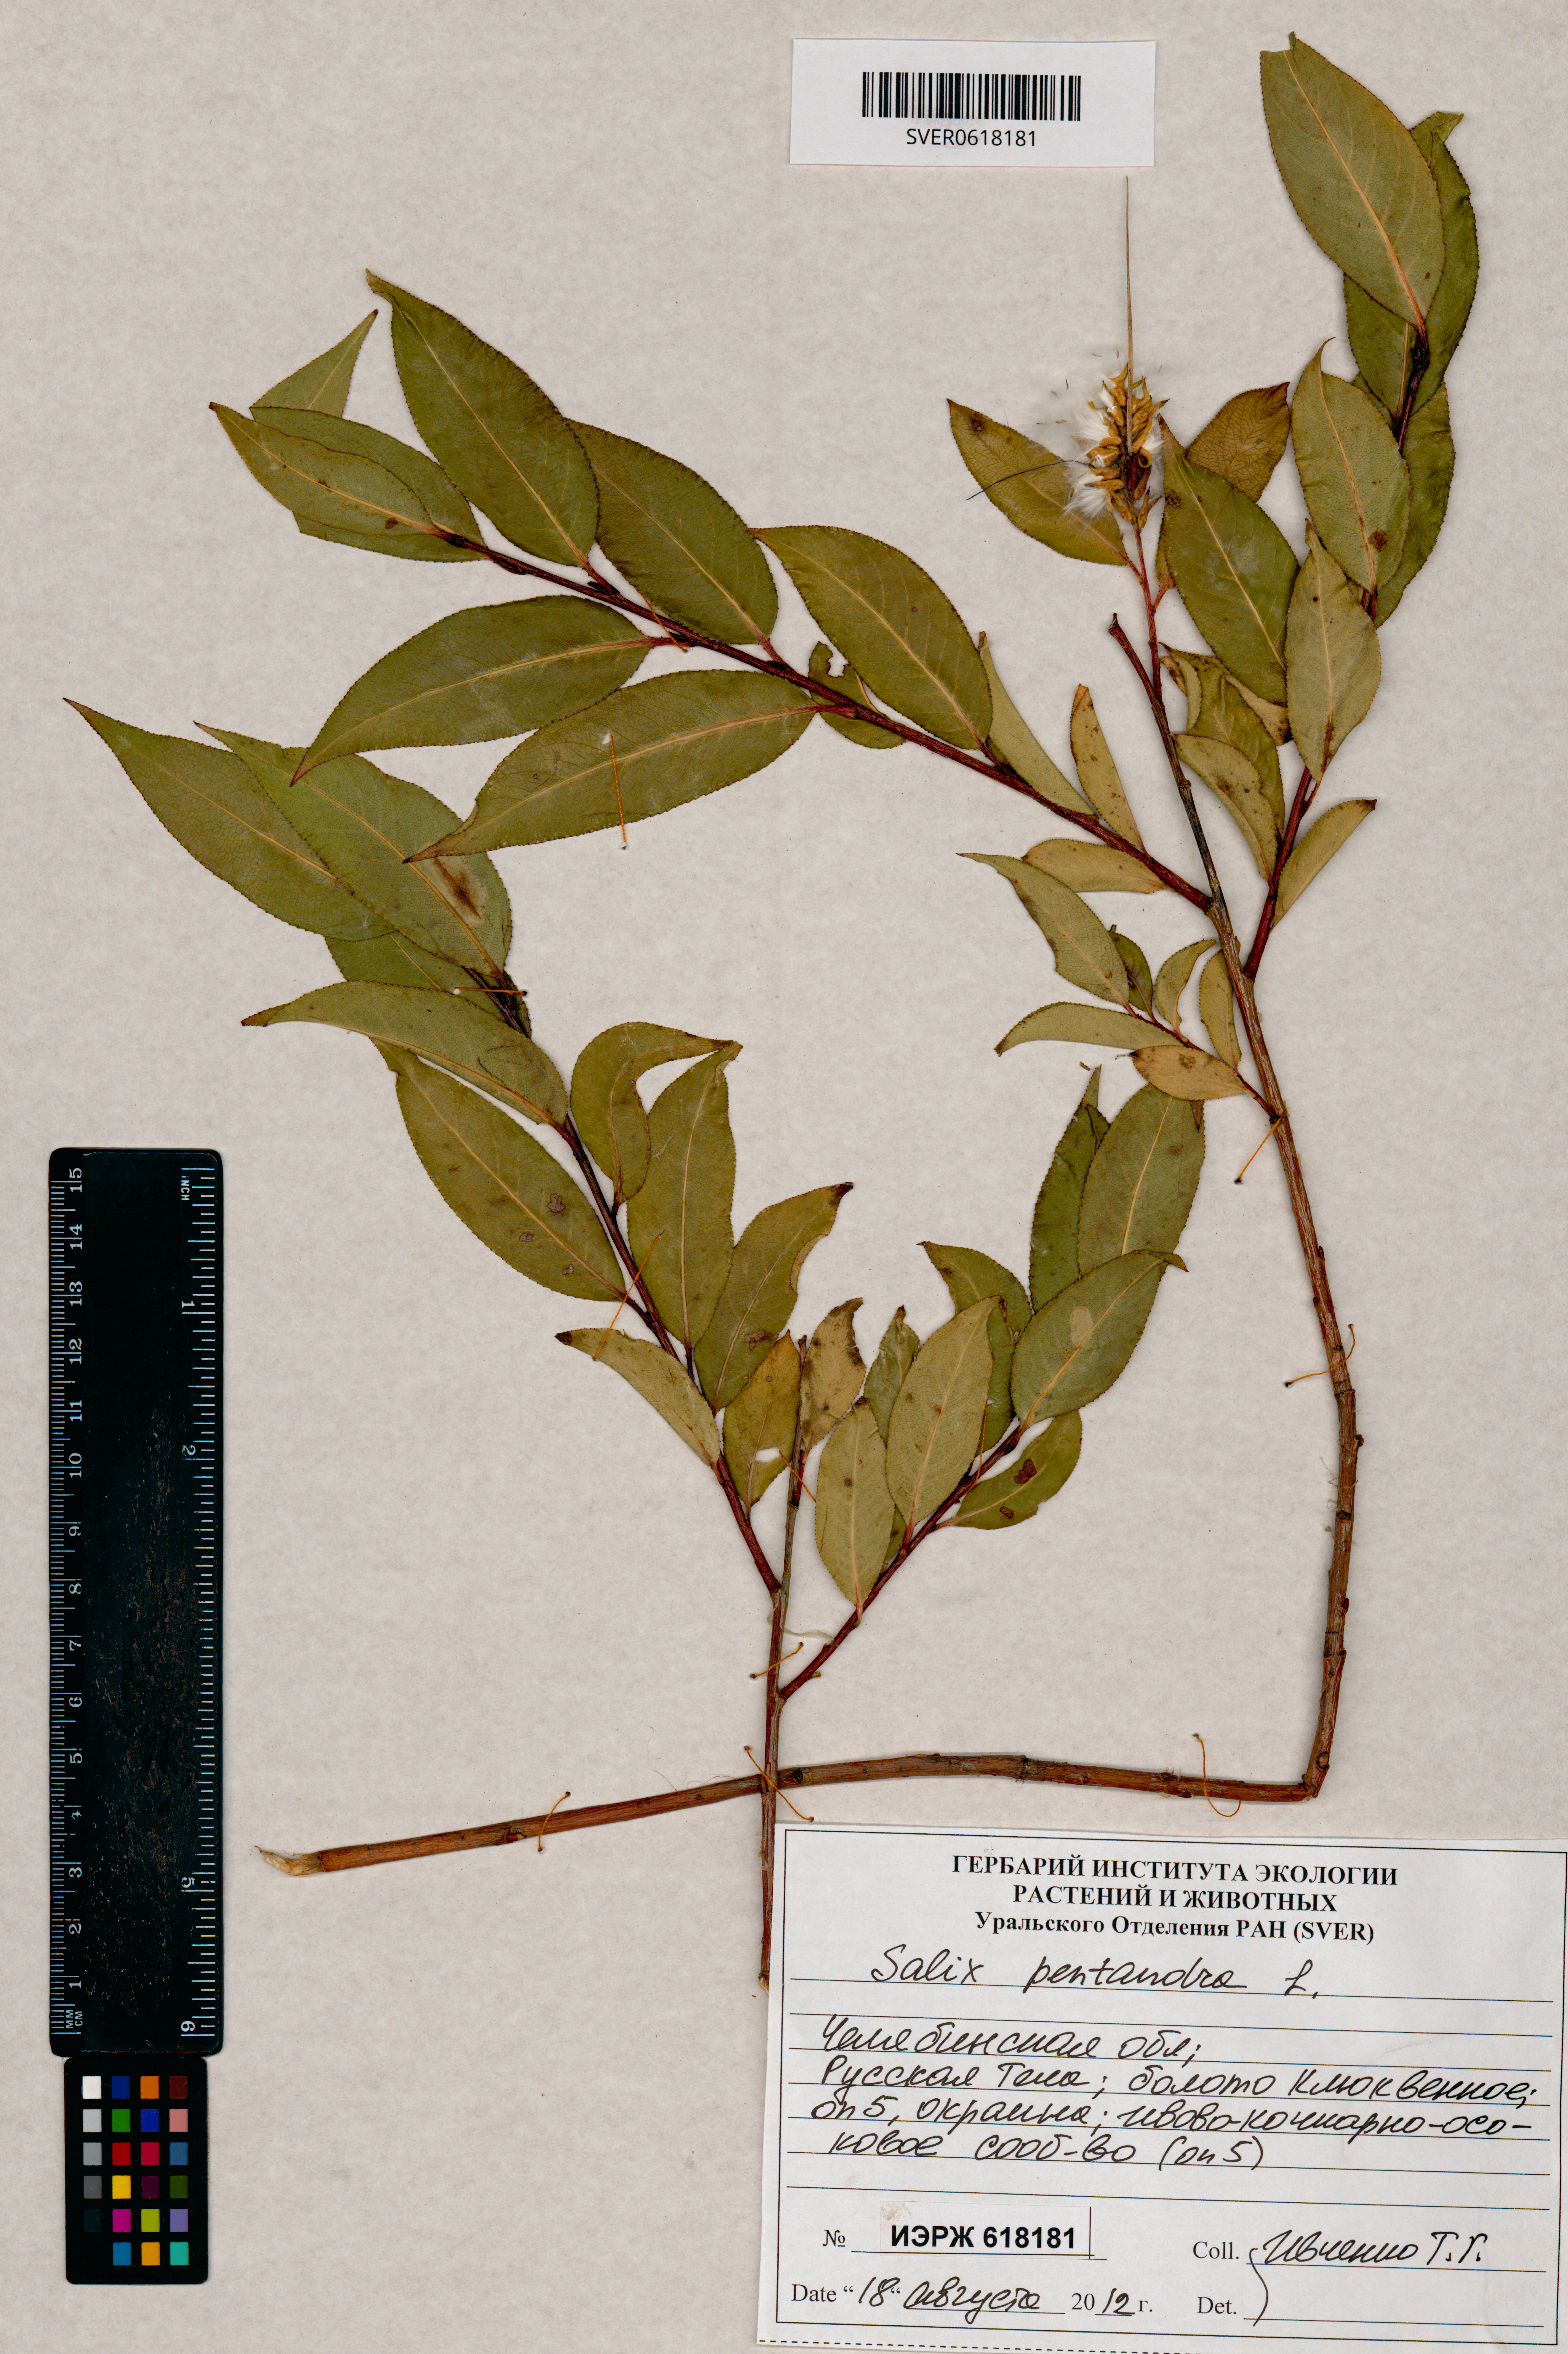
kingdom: Plantae
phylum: Tracheophyta
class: Magnoliopsida
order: Malpighiales
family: Salicaceae
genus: Salix
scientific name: Salix pentandra
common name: Bay willow
